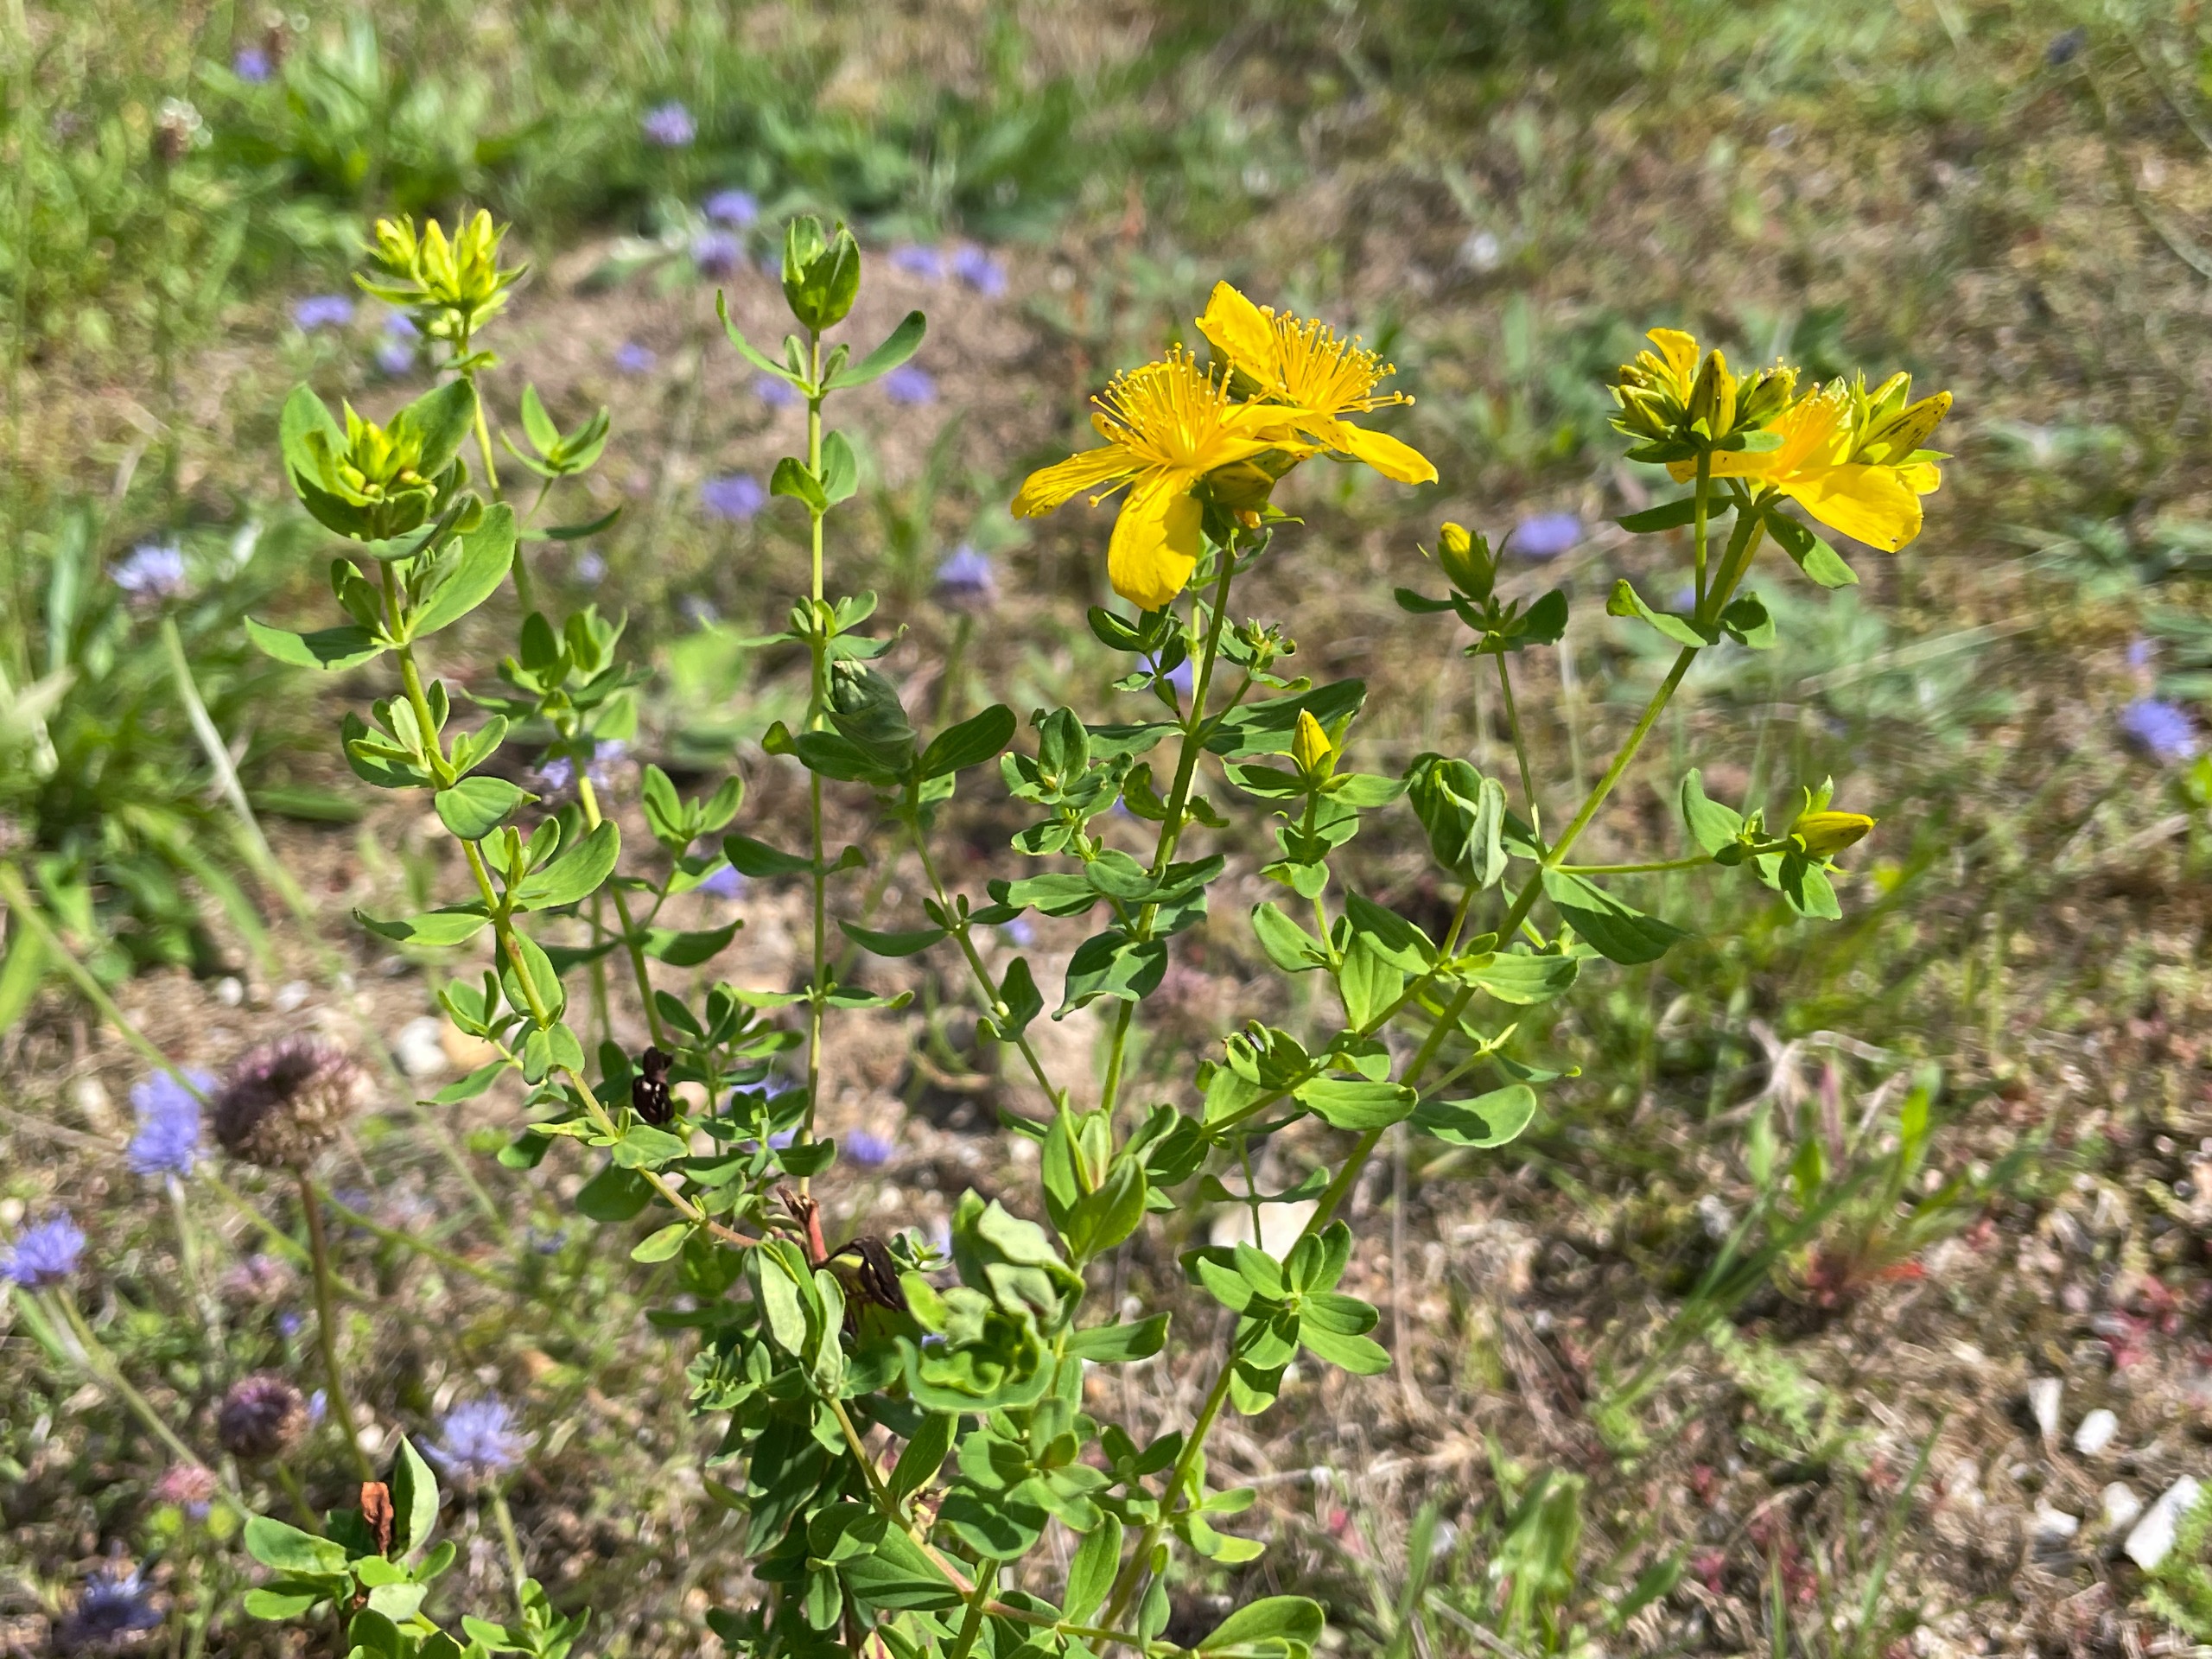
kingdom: Plantae
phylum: Tracheophyta
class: Magnoliopsida
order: Malpighiales
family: Hypericaceae
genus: Hypericum
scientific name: Hypericum perforatum
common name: Prikbladet perikon
